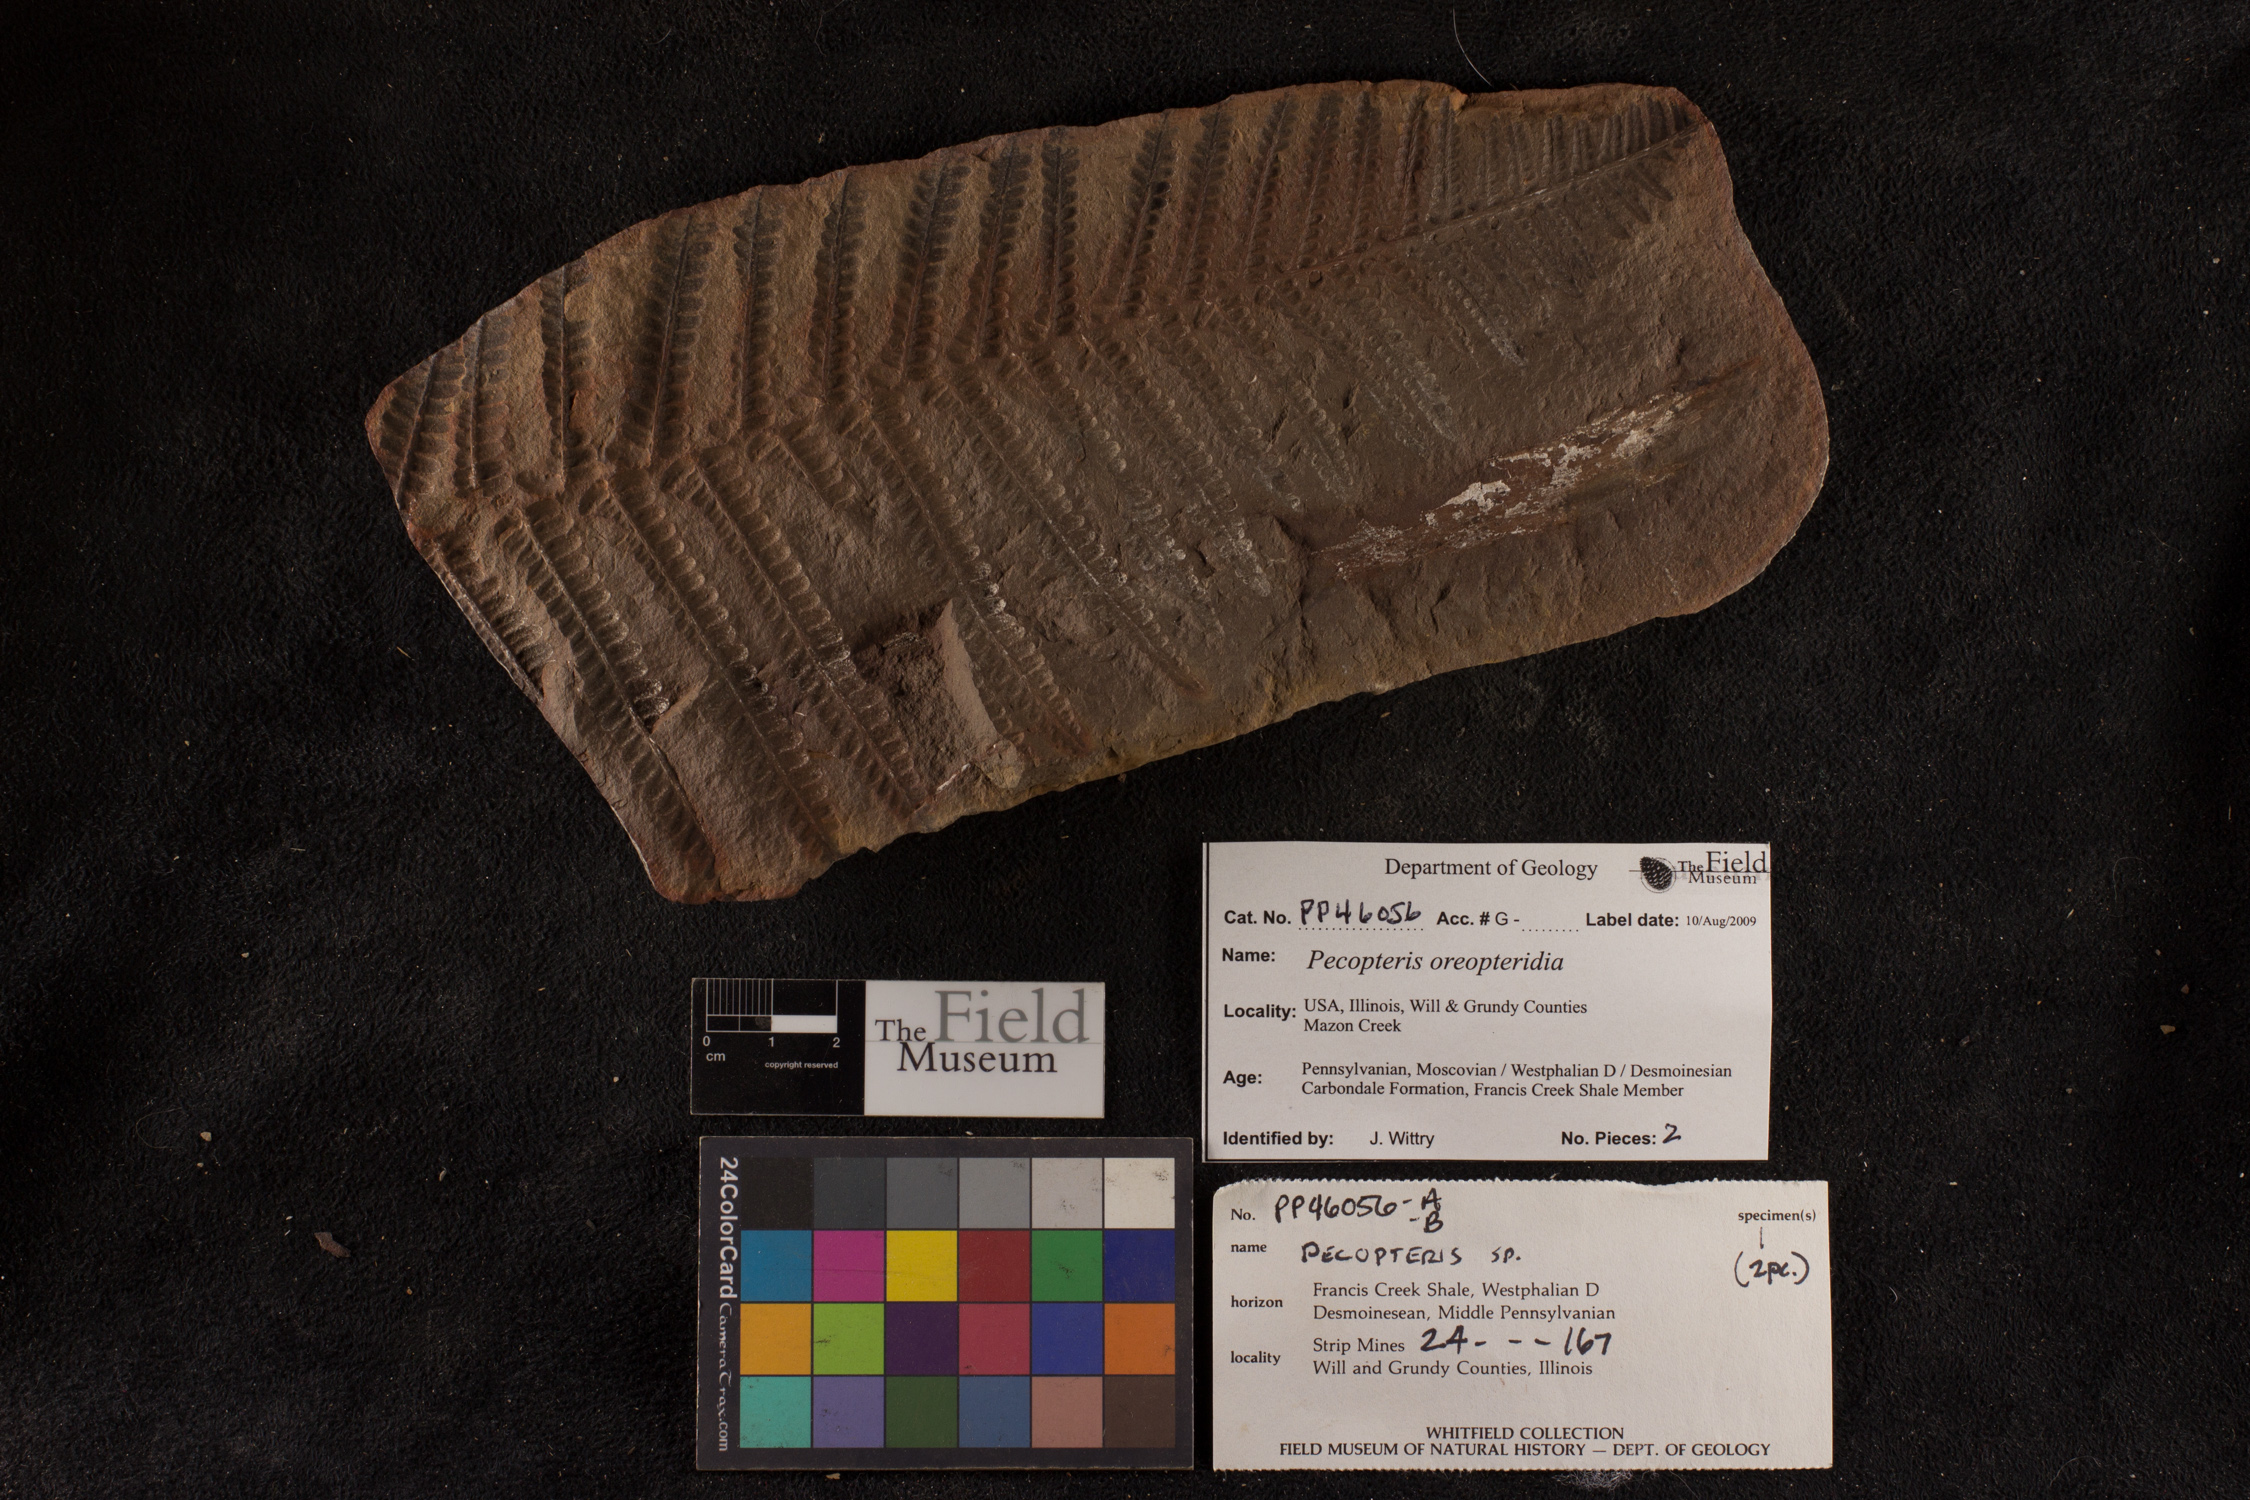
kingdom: Plantae
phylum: Tracheophyta
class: Polypodiopsida
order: Marattiales
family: Asterothecaceae
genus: Pecopteris
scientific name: Pecopteris
